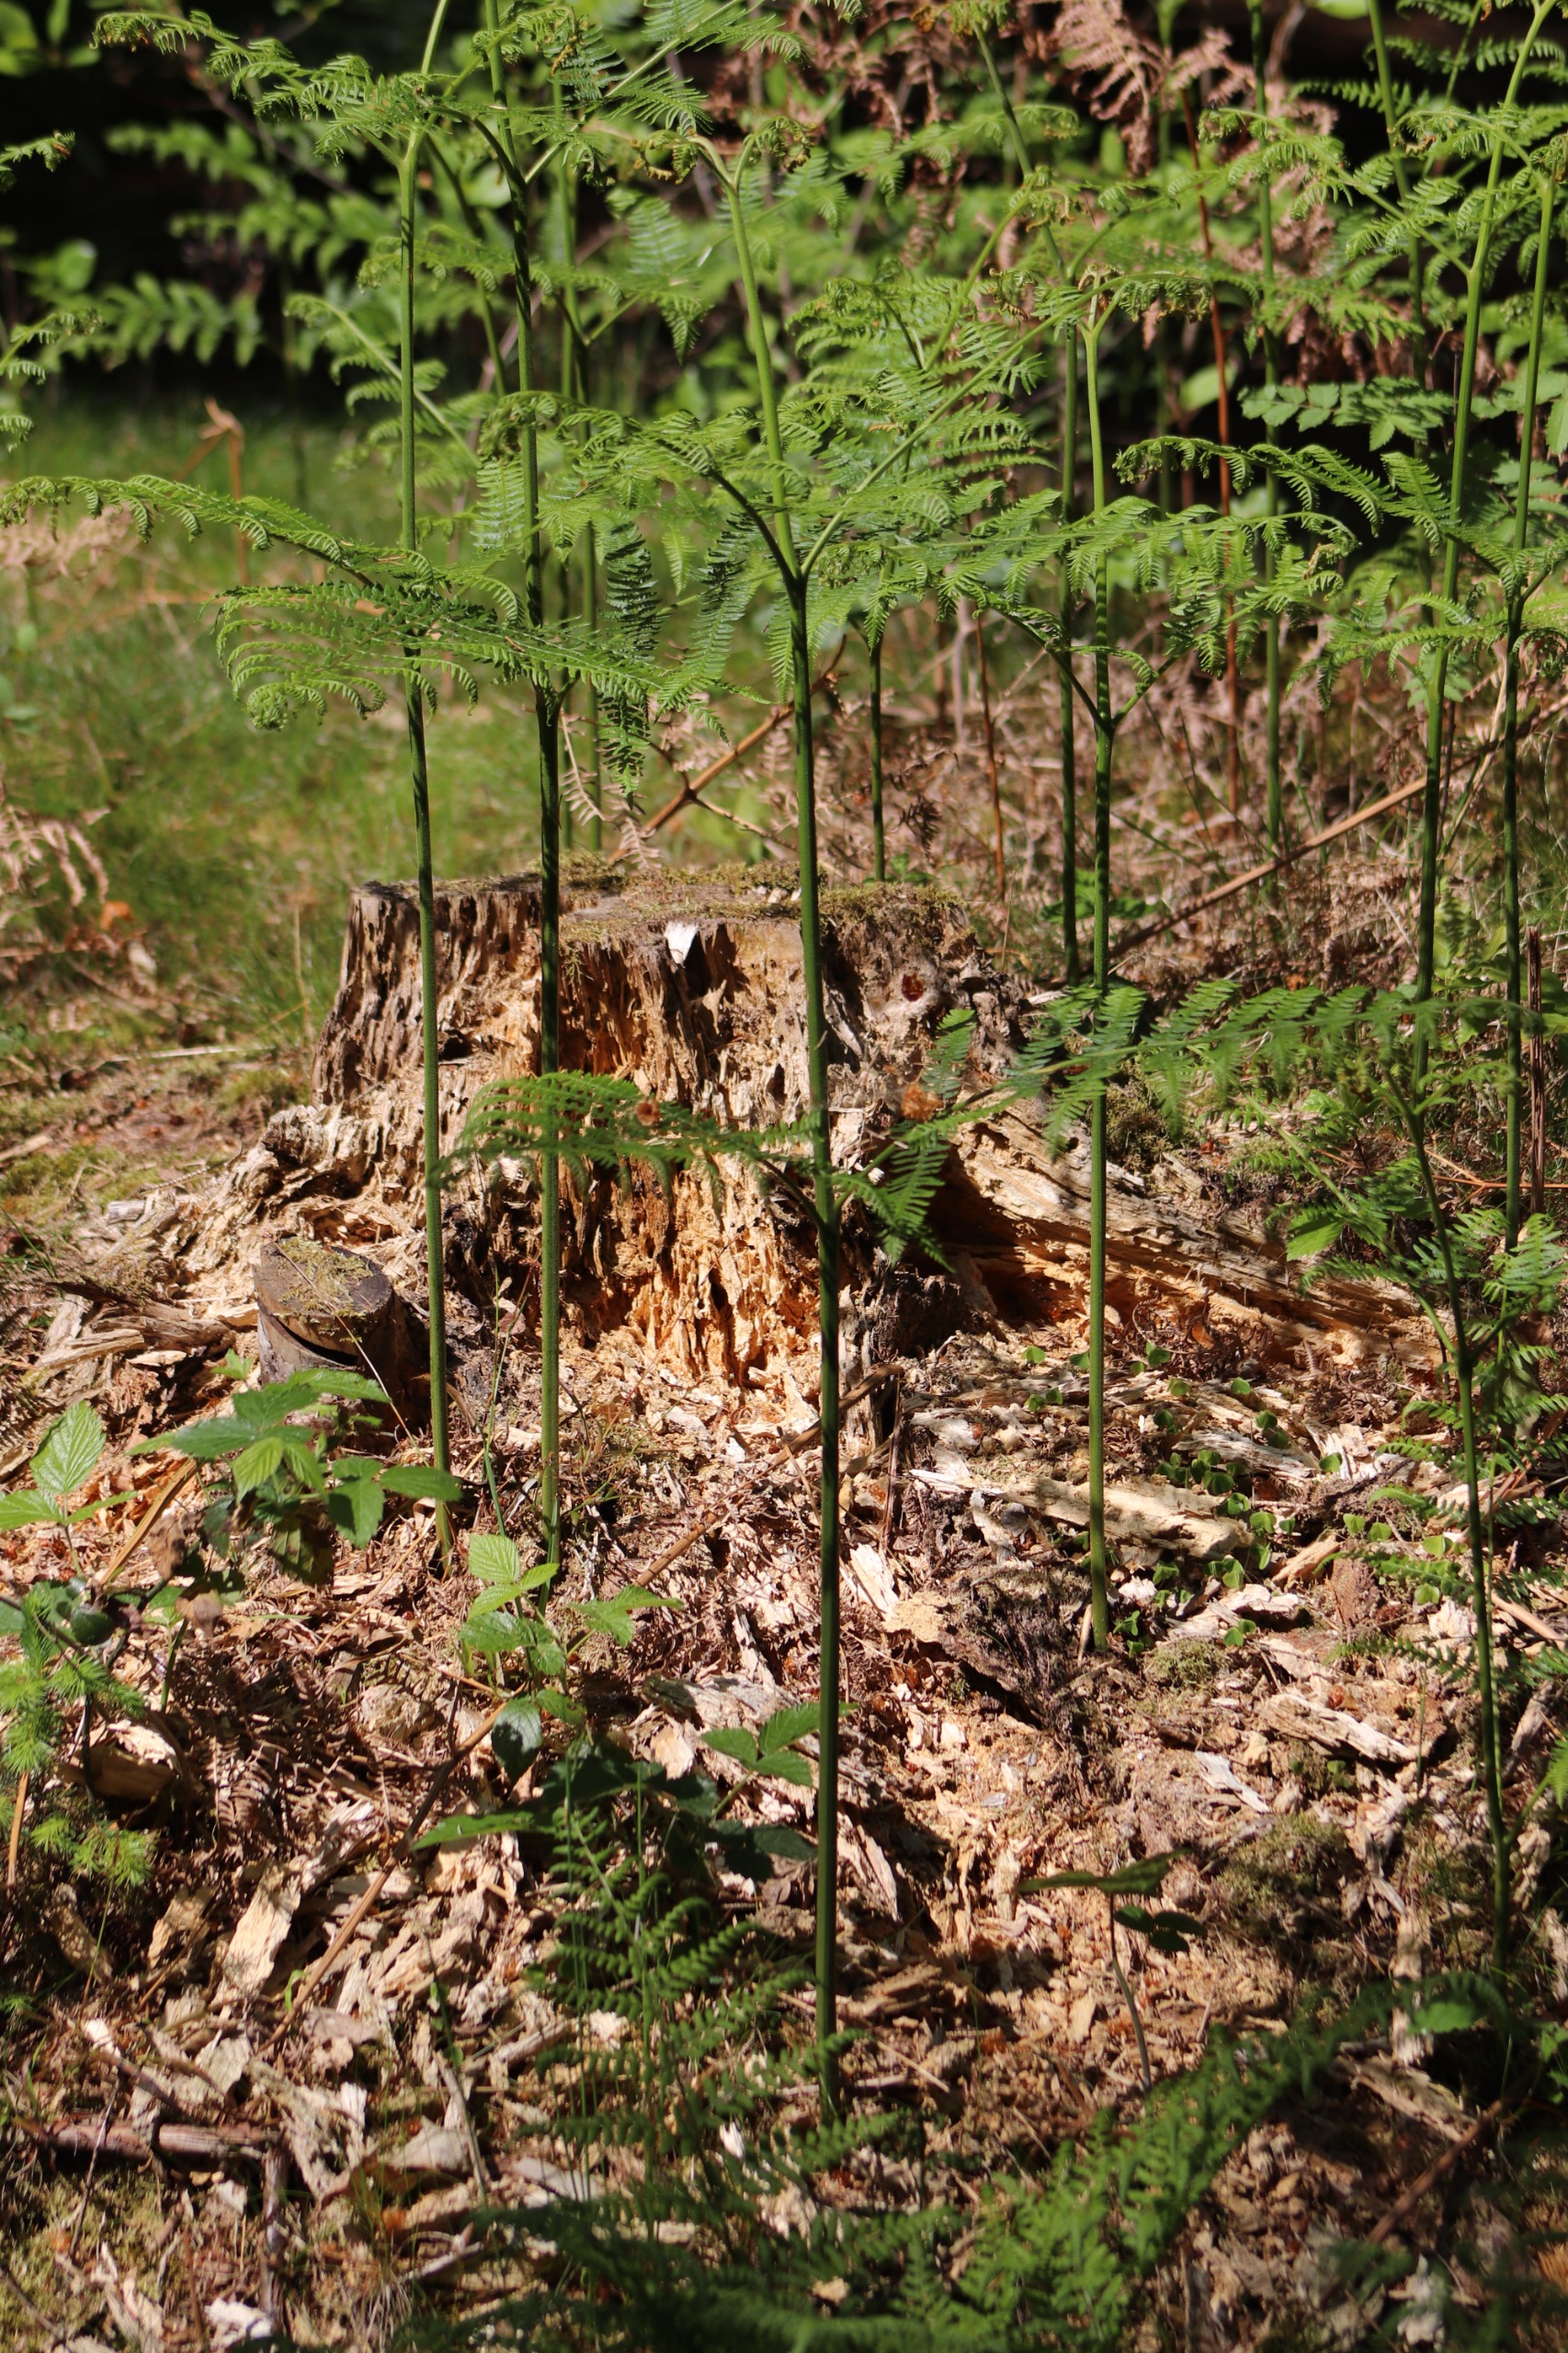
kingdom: Plantae
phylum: Tracheophyta
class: Polypodiopsida
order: Polypodiales
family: Dennstaedtiaceae
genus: Pteridium
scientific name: Pteridium aquilinum
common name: Ørnebregne
